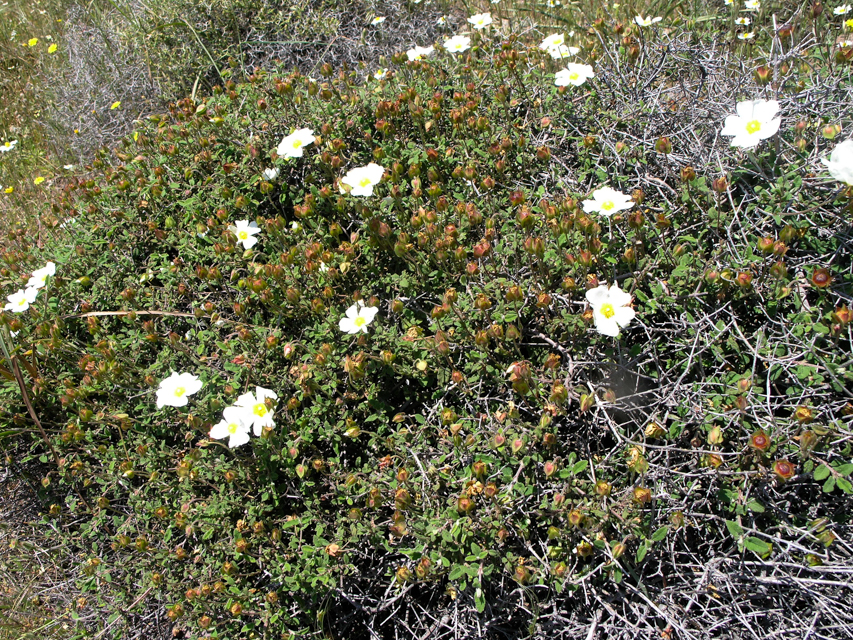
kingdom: Plantae
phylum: Tracheophyta
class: Magnoliopsida
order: Malvales
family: Cistaceae
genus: Cistus
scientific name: Cistus salviifolius
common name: Salvia cistus
